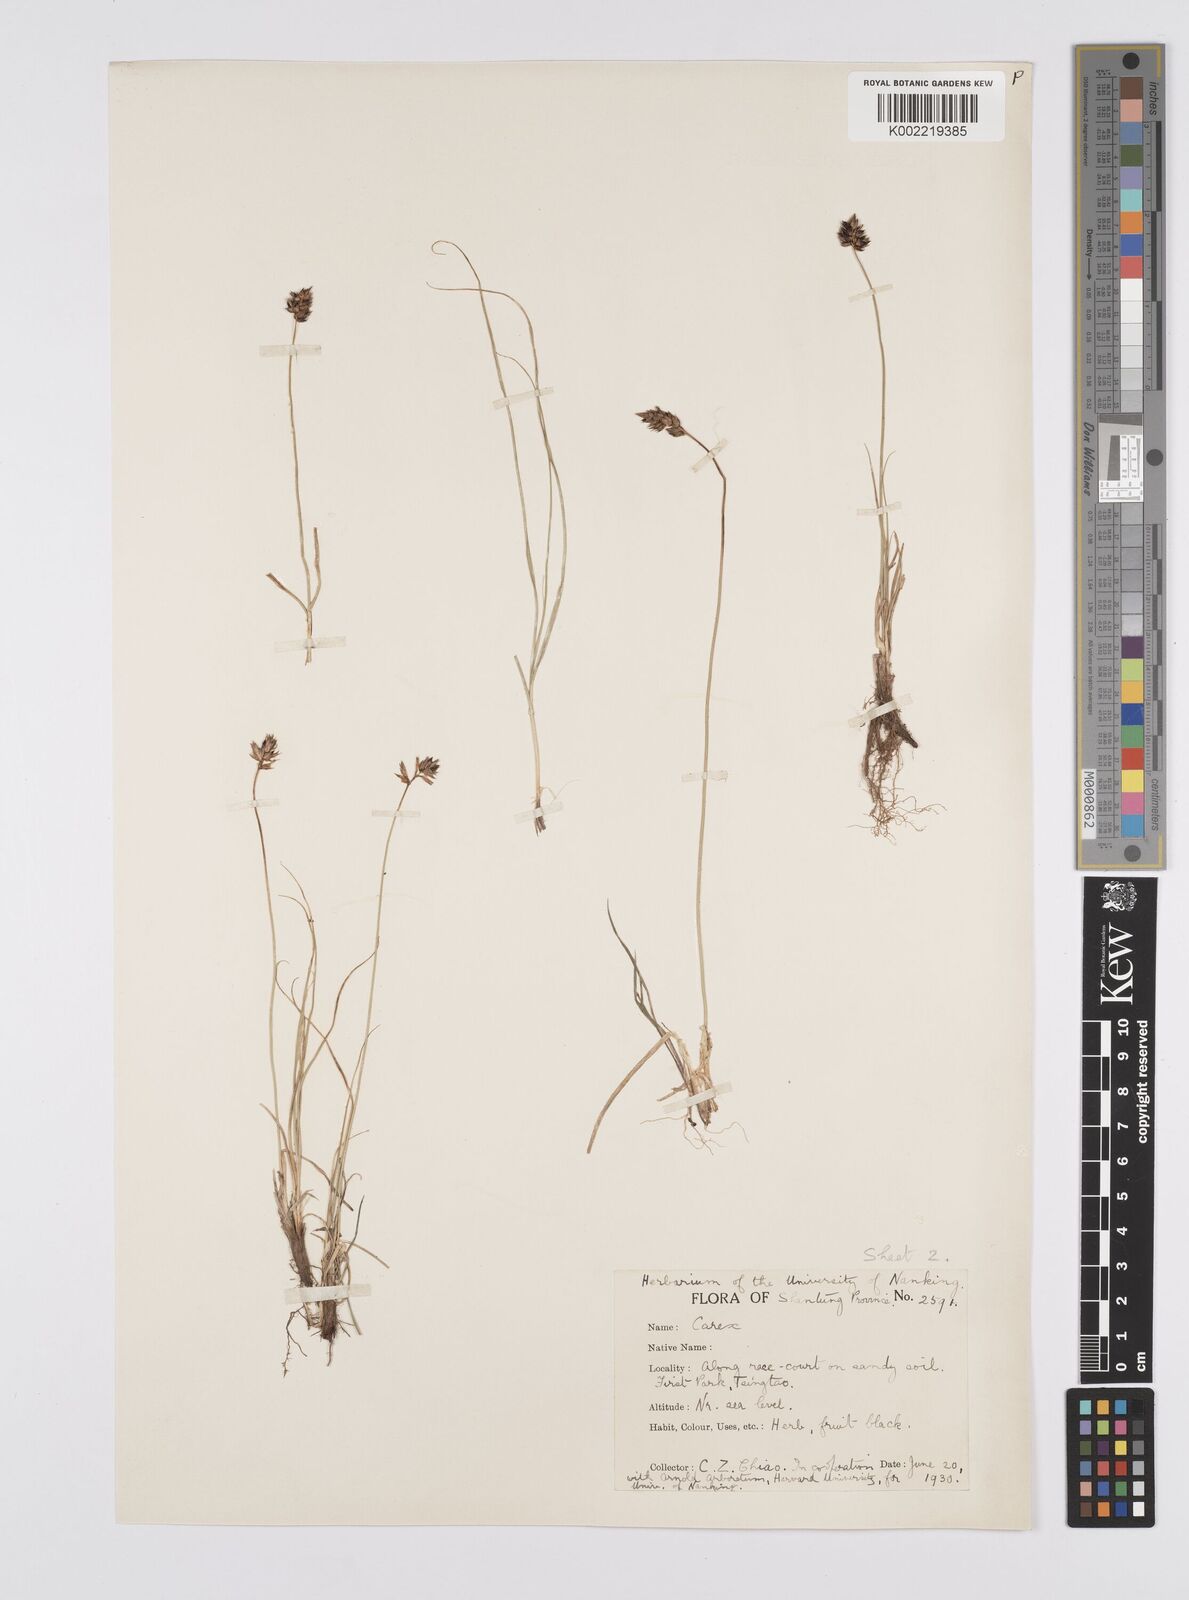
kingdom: Plantae
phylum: Tracheophyta
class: Liliopsida
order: Poales
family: Cyperaceae
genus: Carex
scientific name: Carex stenophylla
